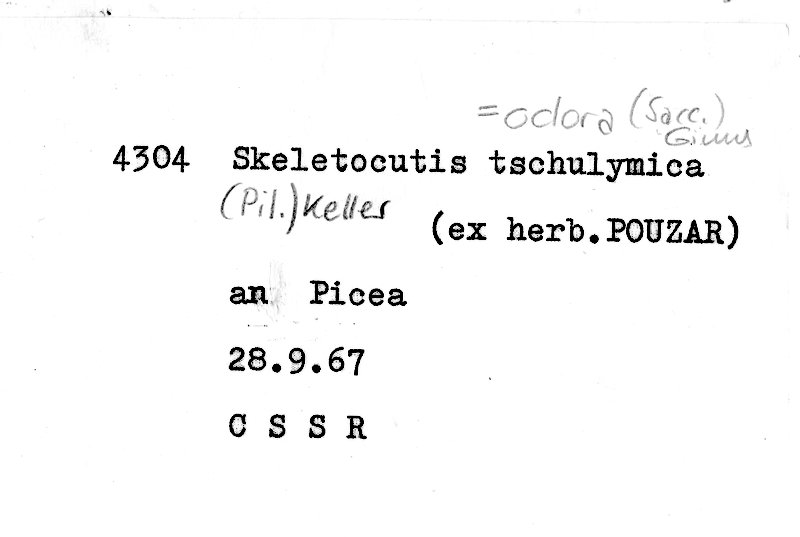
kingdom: Plantae
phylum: Tracheophyta
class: Pinopsida
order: Pinales
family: Pinaceae
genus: Picea
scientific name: Picea abies
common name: Norway spruce
